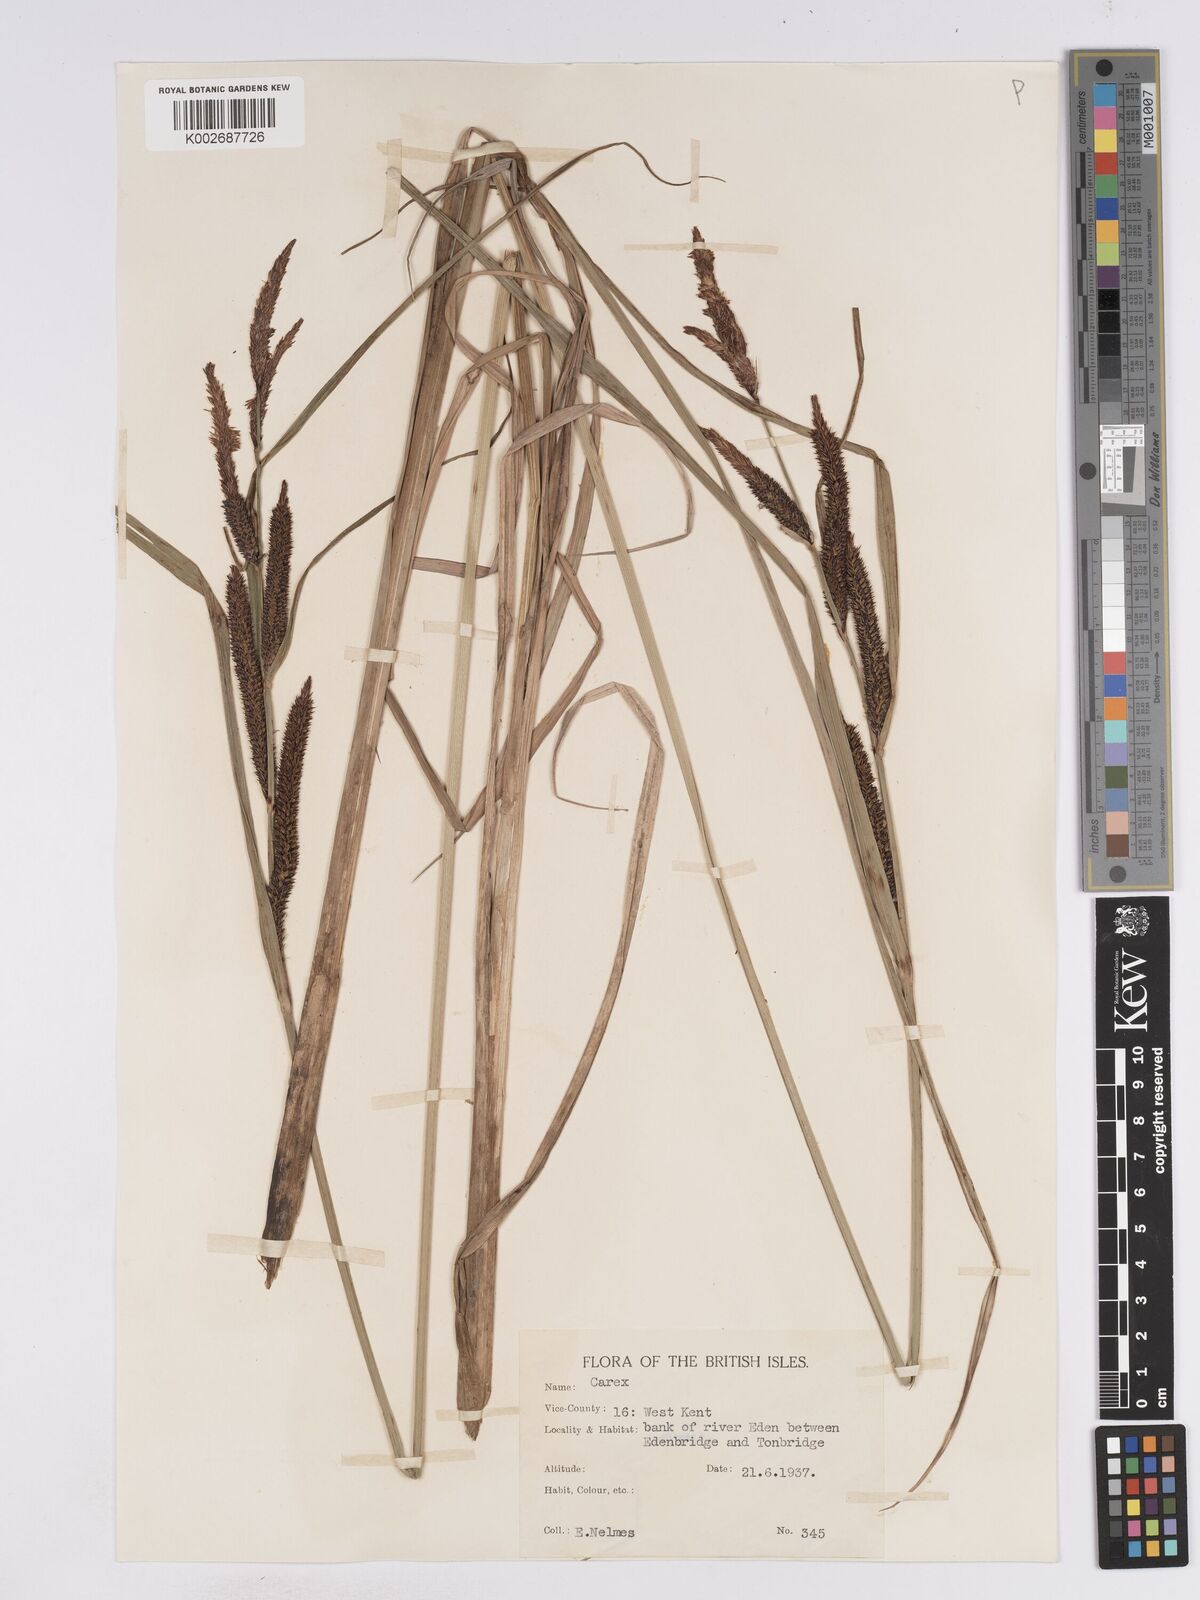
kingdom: Plantae
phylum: Tracheophyta
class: Liliopsida
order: Poales
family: Cyperaceae
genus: Carex
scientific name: Carex acuta
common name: Slender tufted-sedge
